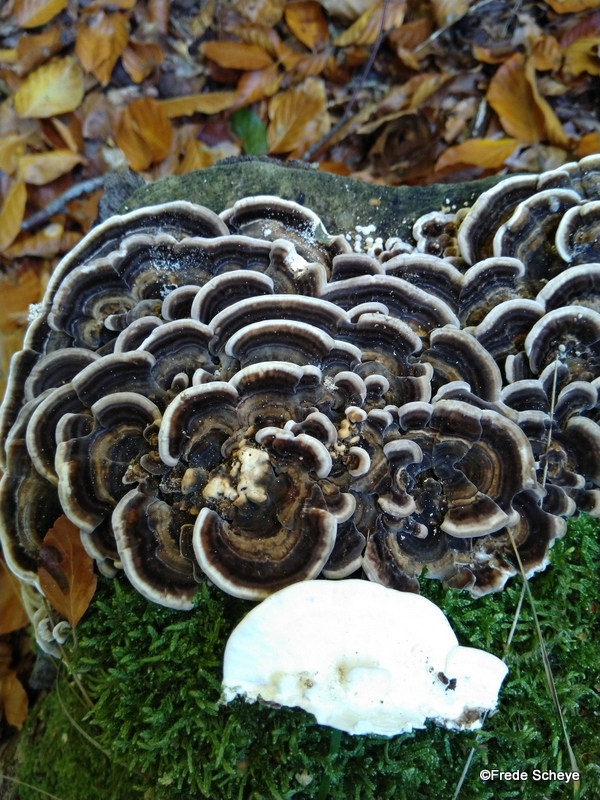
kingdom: Fungi
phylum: Basidiomycota
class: Agaricomycetes
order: Polyporales
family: Polyporaceae
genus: Trametes
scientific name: Trametes versicolor
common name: broget læderporesvamp
